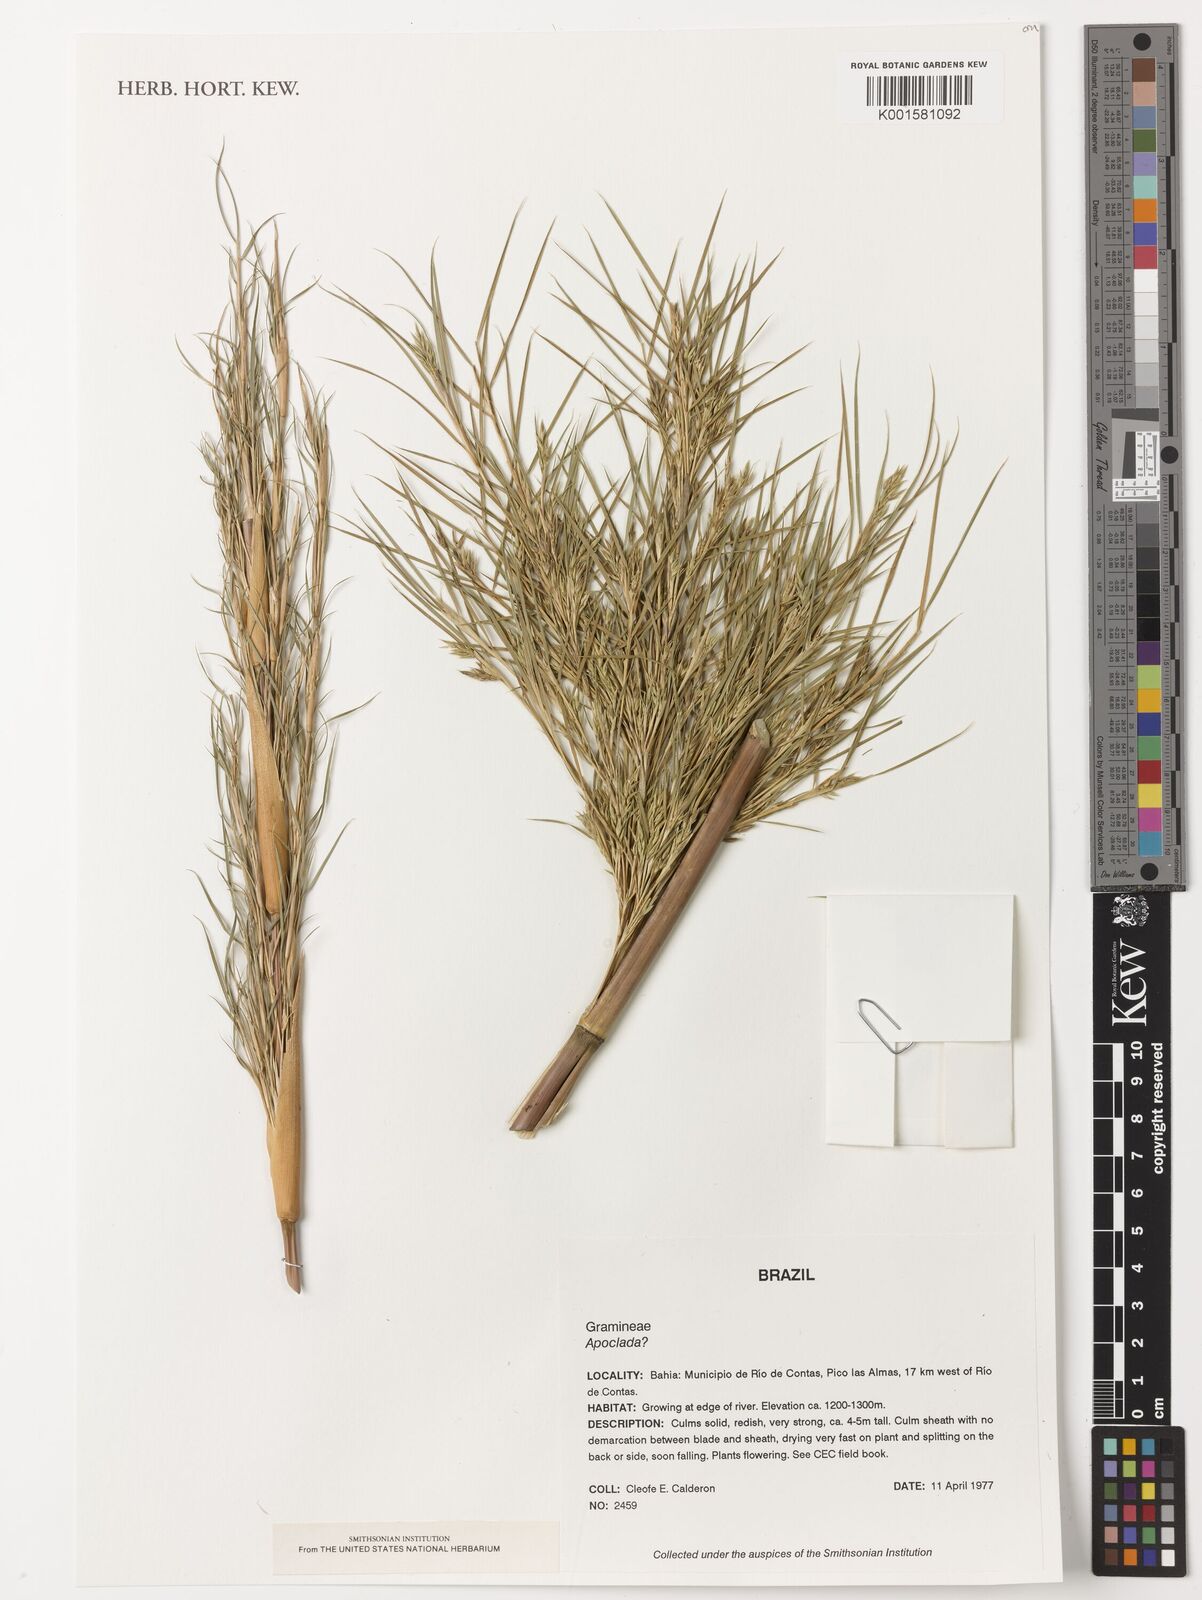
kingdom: Plantae
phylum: Tracheophyta
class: Liliopsida
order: Poales
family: Poaceae
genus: Apoclada
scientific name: Apoclada
